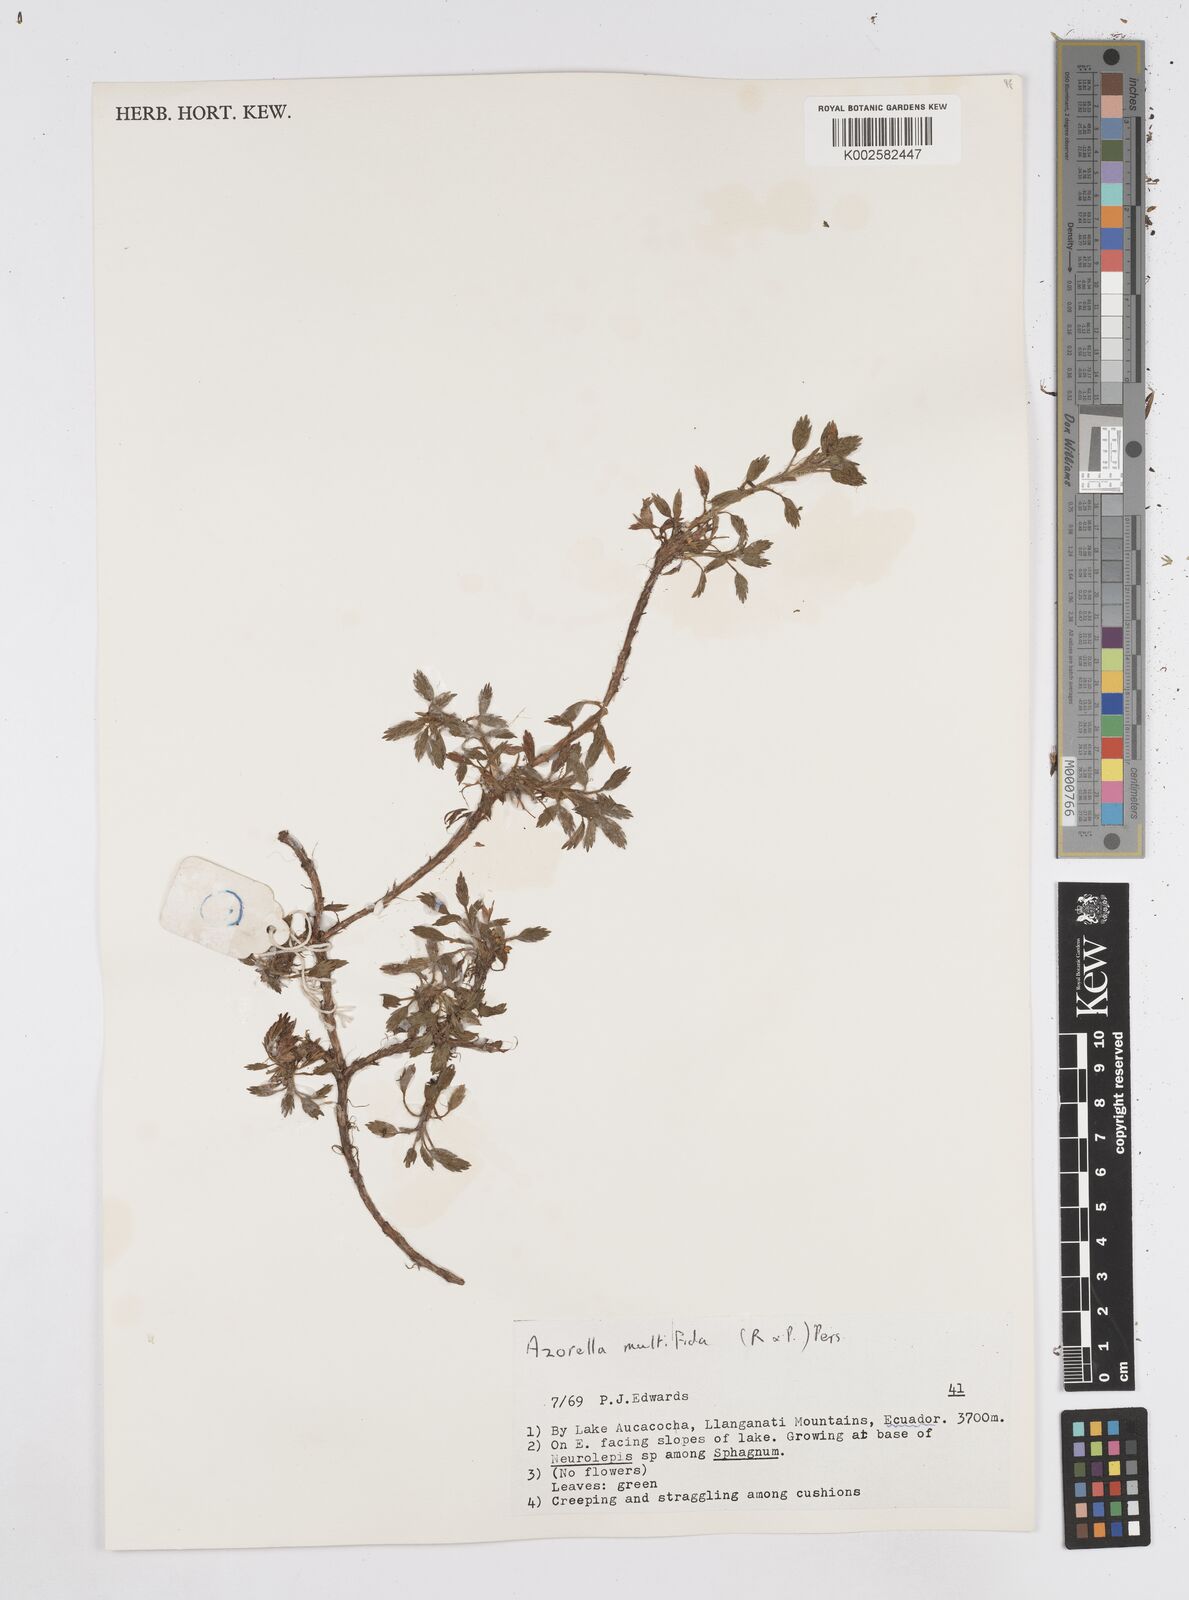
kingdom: Plantae
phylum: Tracheophyta
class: Magnoliopsida
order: Apiales
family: Apiaceae
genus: Azorella
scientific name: Azorella multifida
